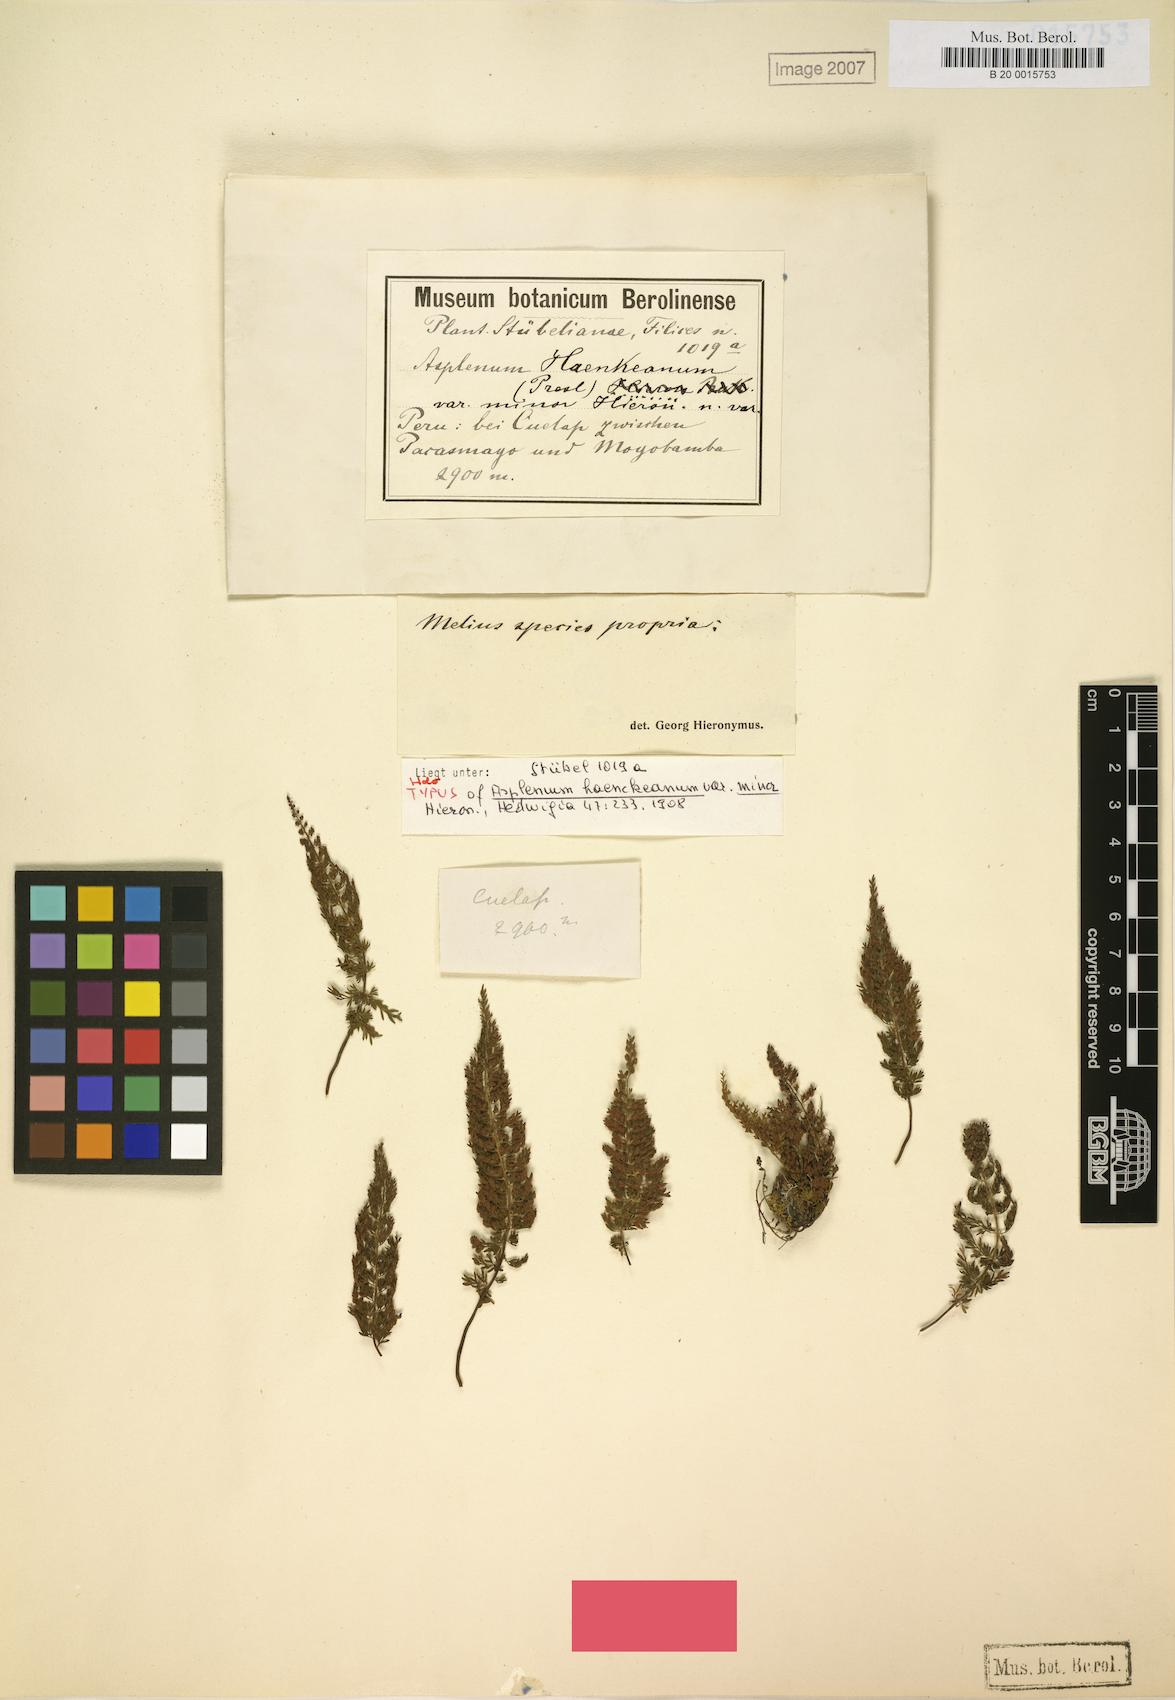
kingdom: Plantae
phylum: Tracheophyta
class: Polypodiopsida
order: Polypodiales
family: Aspleniaceae
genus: Asplenium
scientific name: Asplenium haenkeanum
